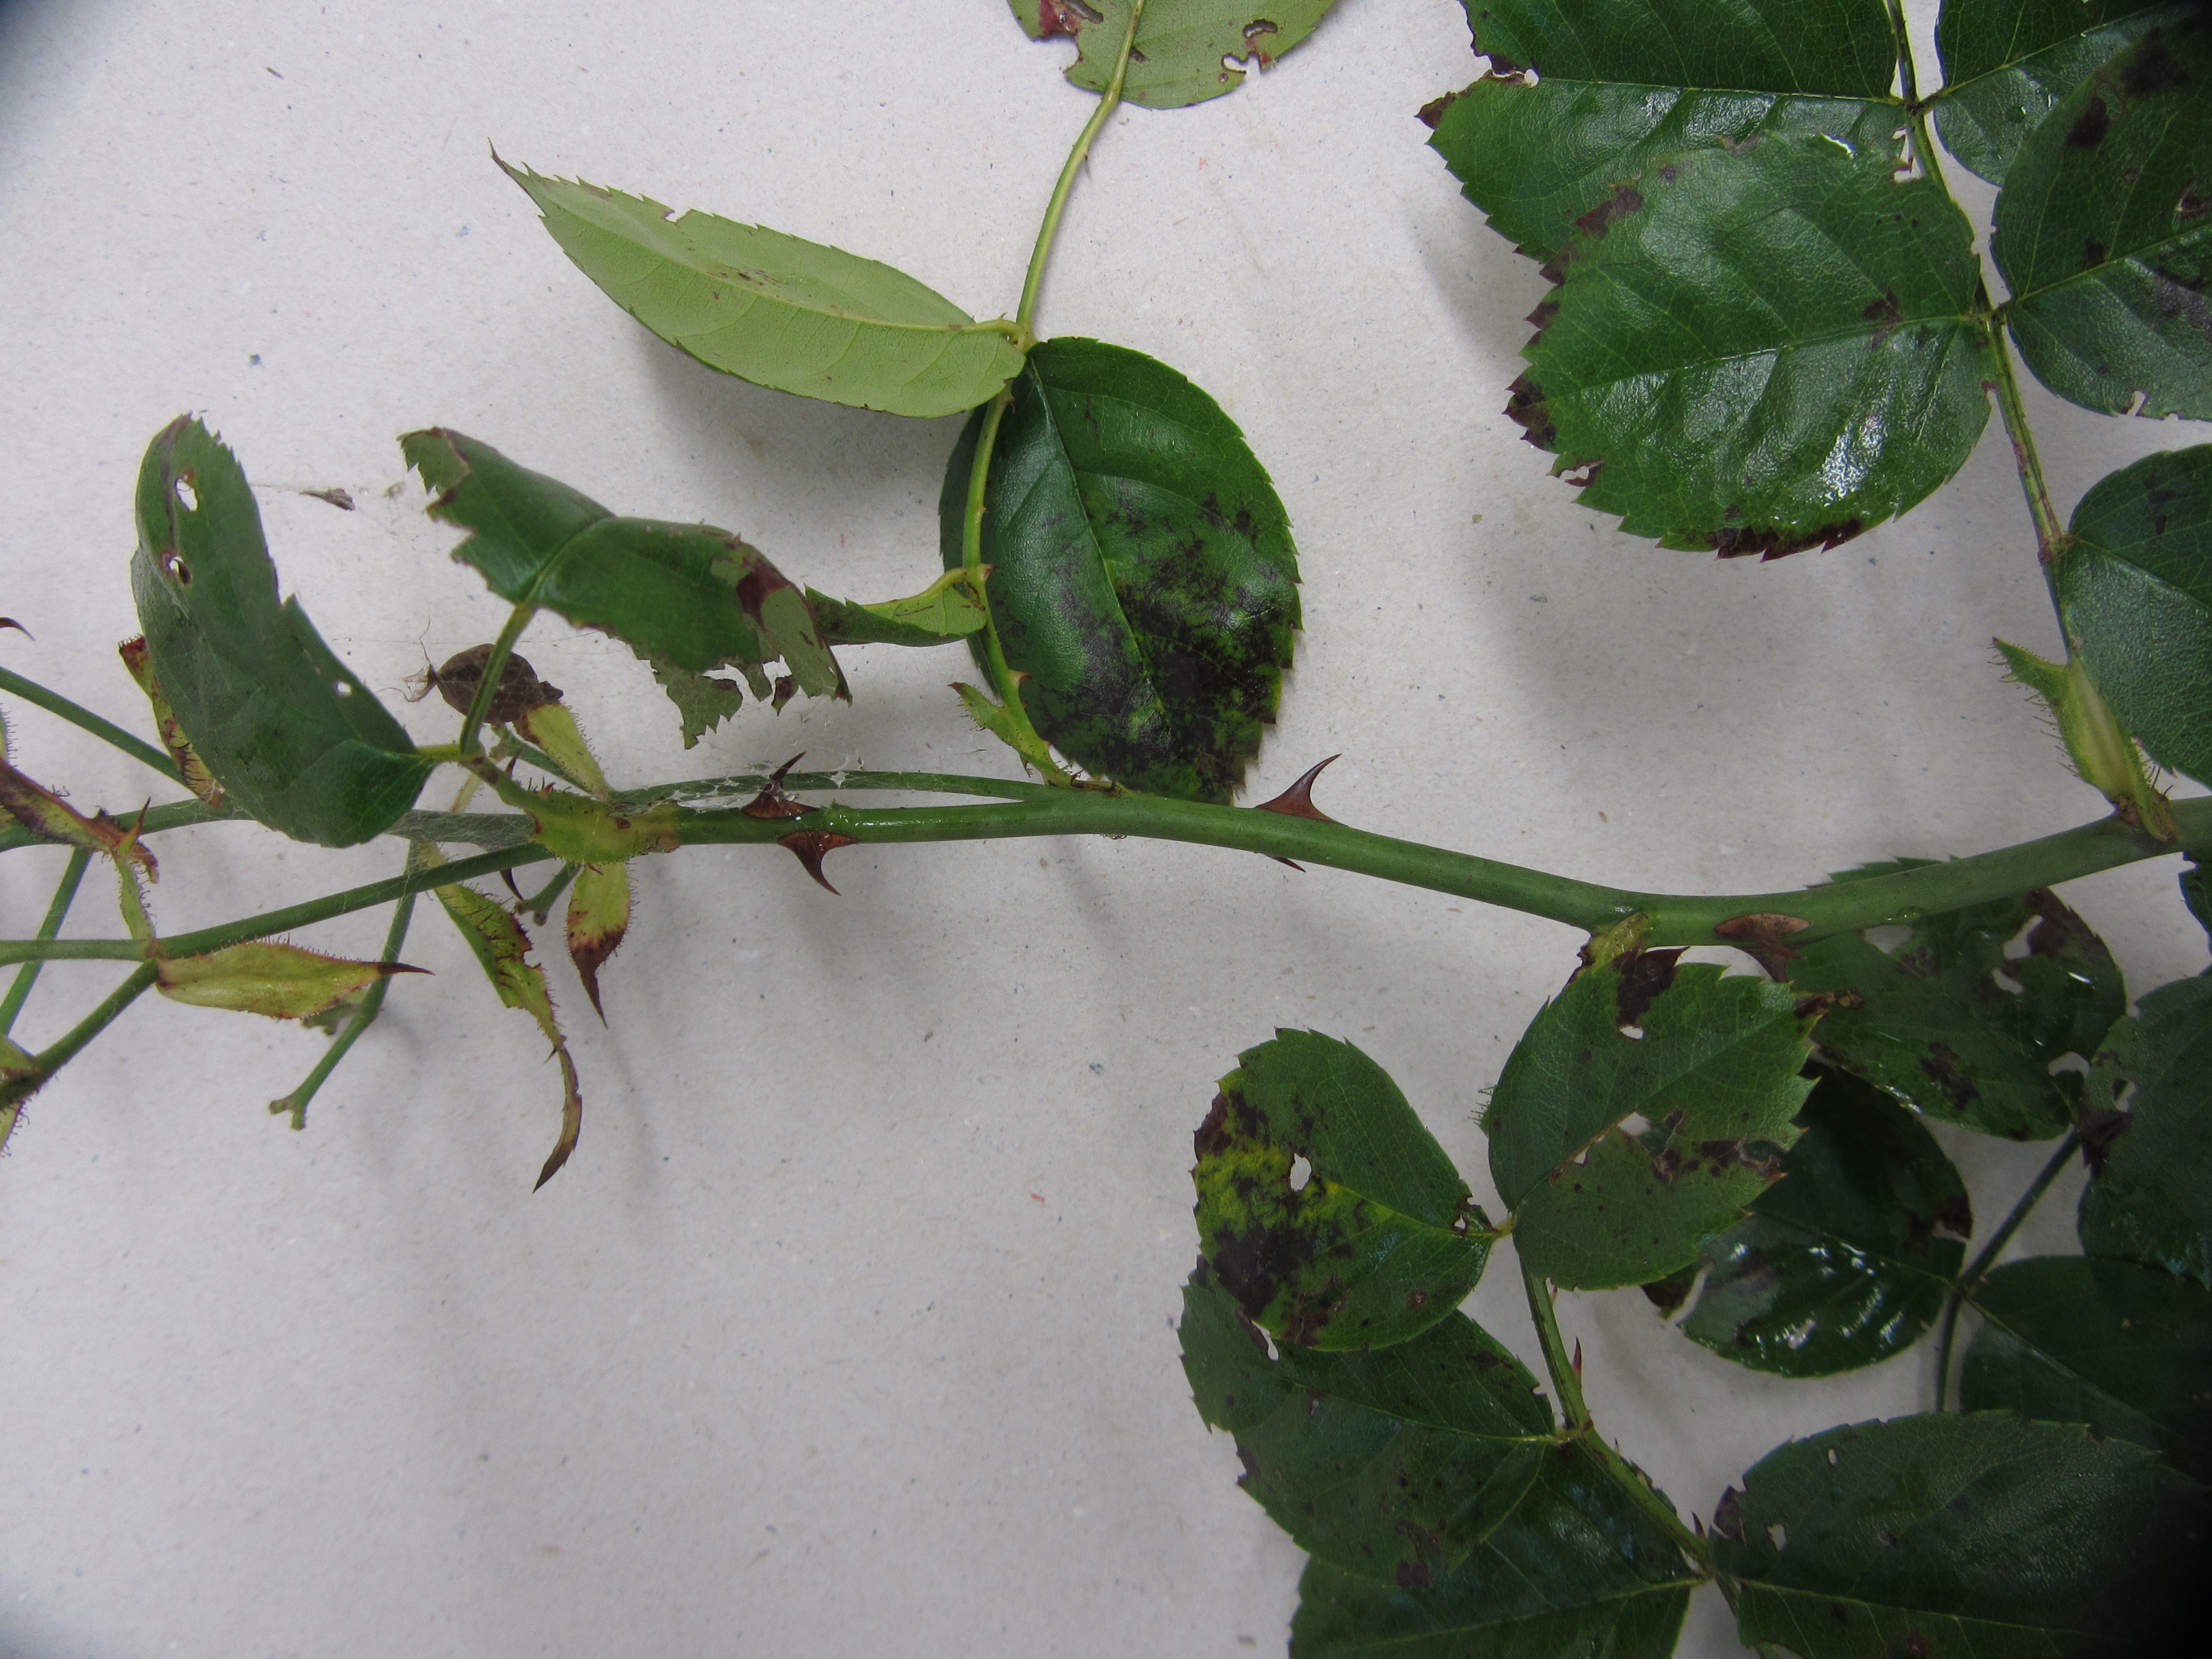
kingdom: Plantae
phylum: Tracheophyta
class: Magnoliopsida
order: Rosales
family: Rosaceae
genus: Rosa
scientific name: Rosa lucieae
